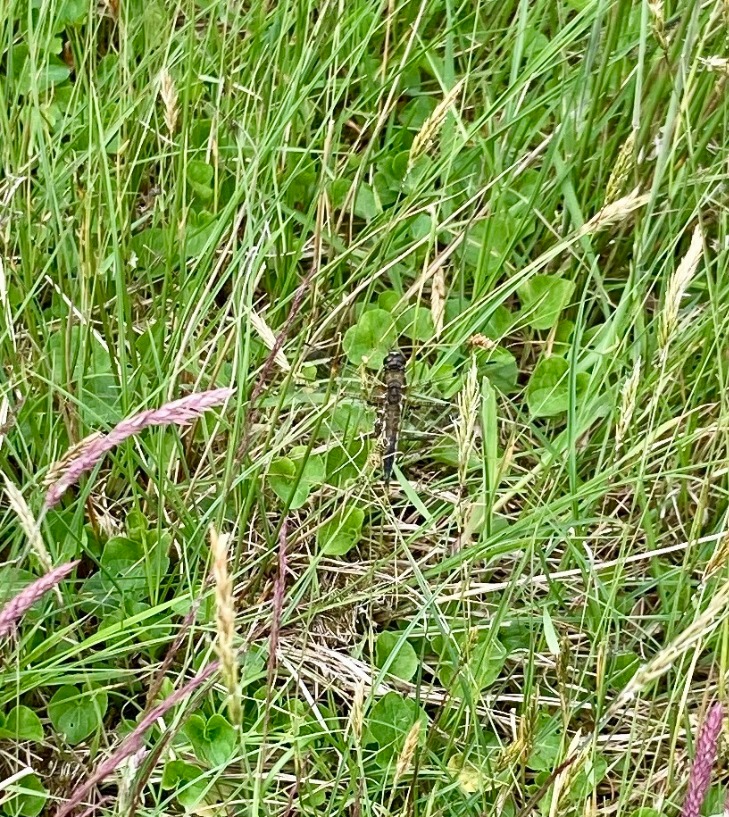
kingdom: Animalia
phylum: Arthropoda
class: Insecta
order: Odonata
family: Libellulidae
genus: Libellula
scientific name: Libellula quadrimaculata
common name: Fireplettet libel
